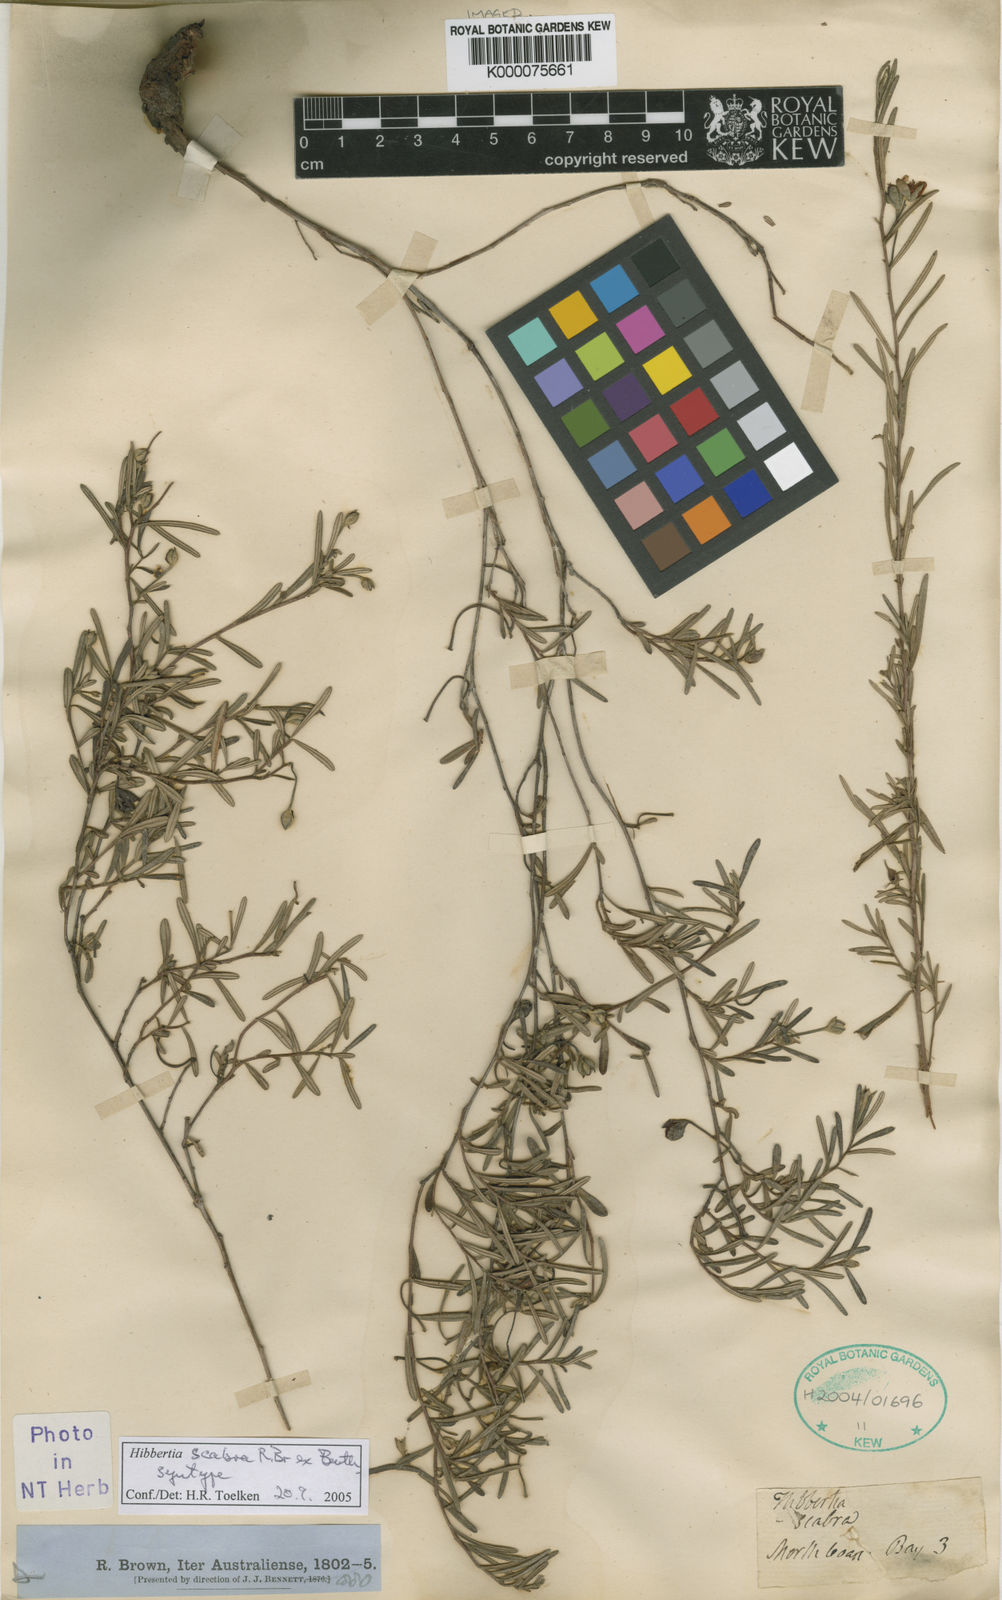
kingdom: Plantae
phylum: Tracheophyta
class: Magnoliopsida
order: Dilleniales
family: Dilleniaceae
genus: Hibbertia
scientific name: Hibbertia scabra
